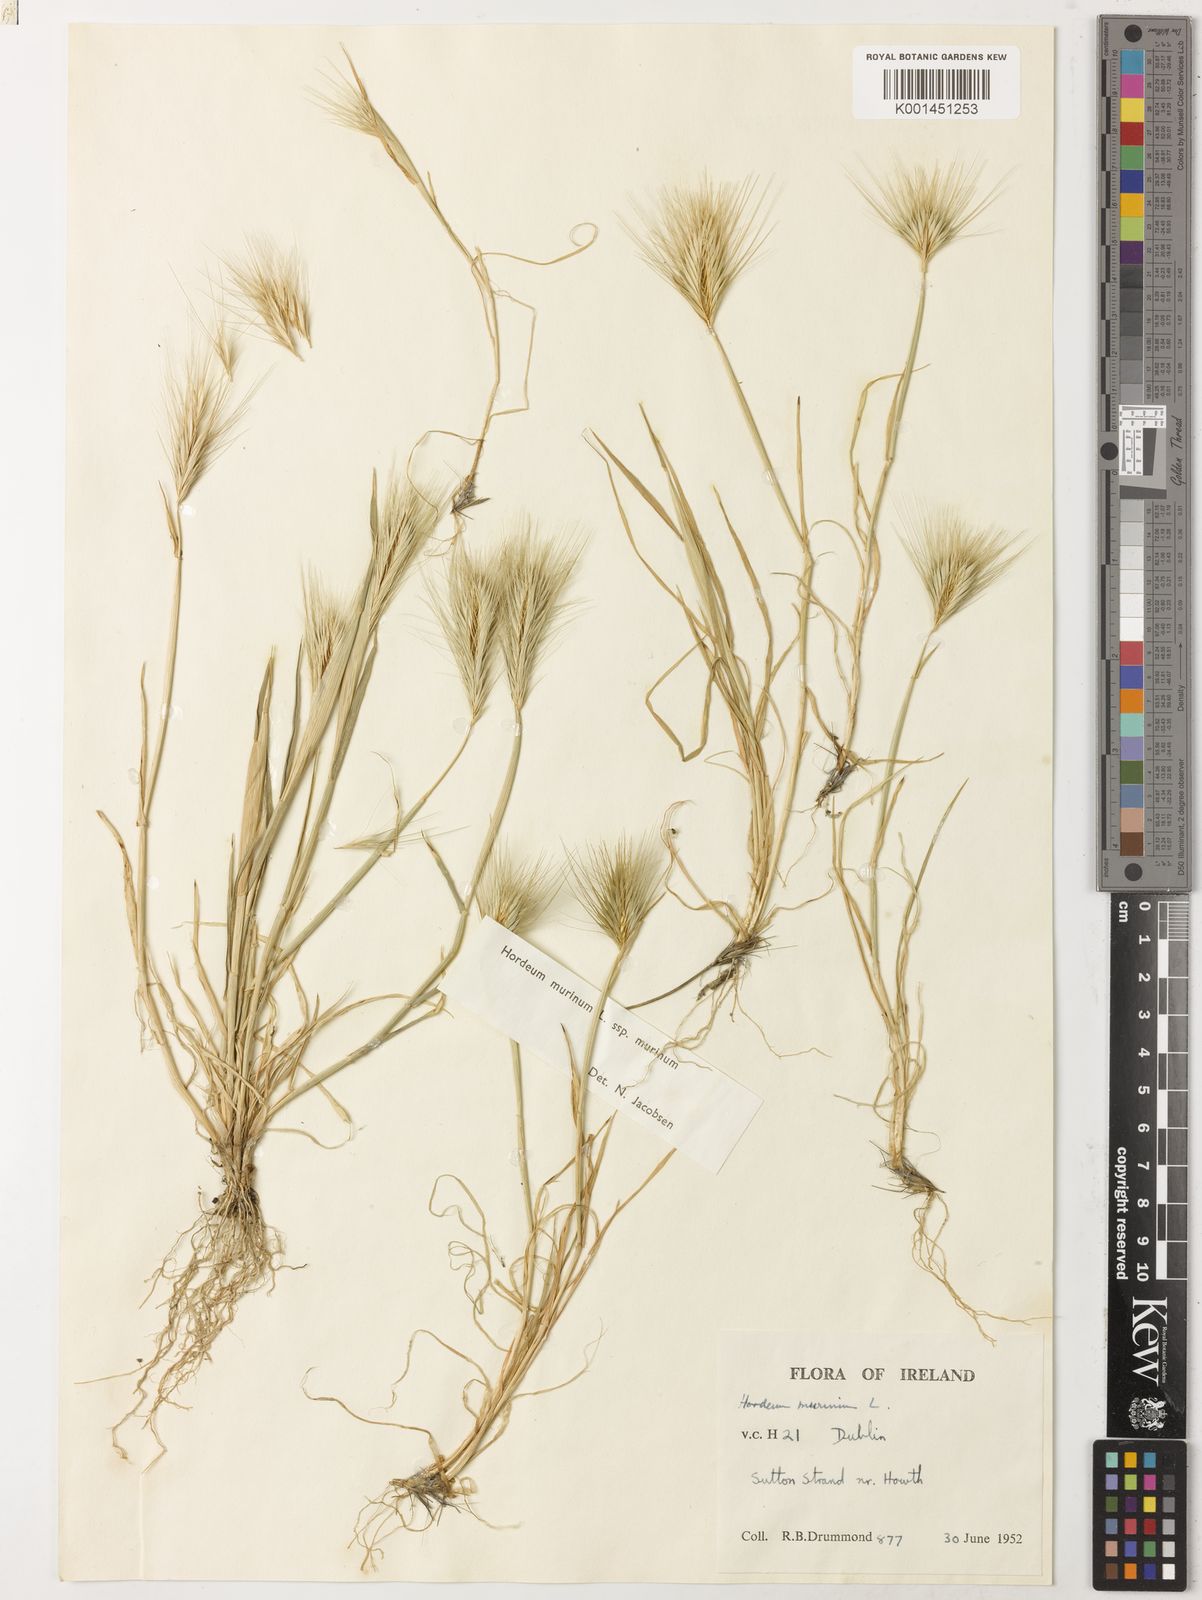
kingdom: Plantae
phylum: Tracheophyta
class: Liliopsida
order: Poales
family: Poaceae
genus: Hordeum
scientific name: Hordeum murinum
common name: Wall barley
